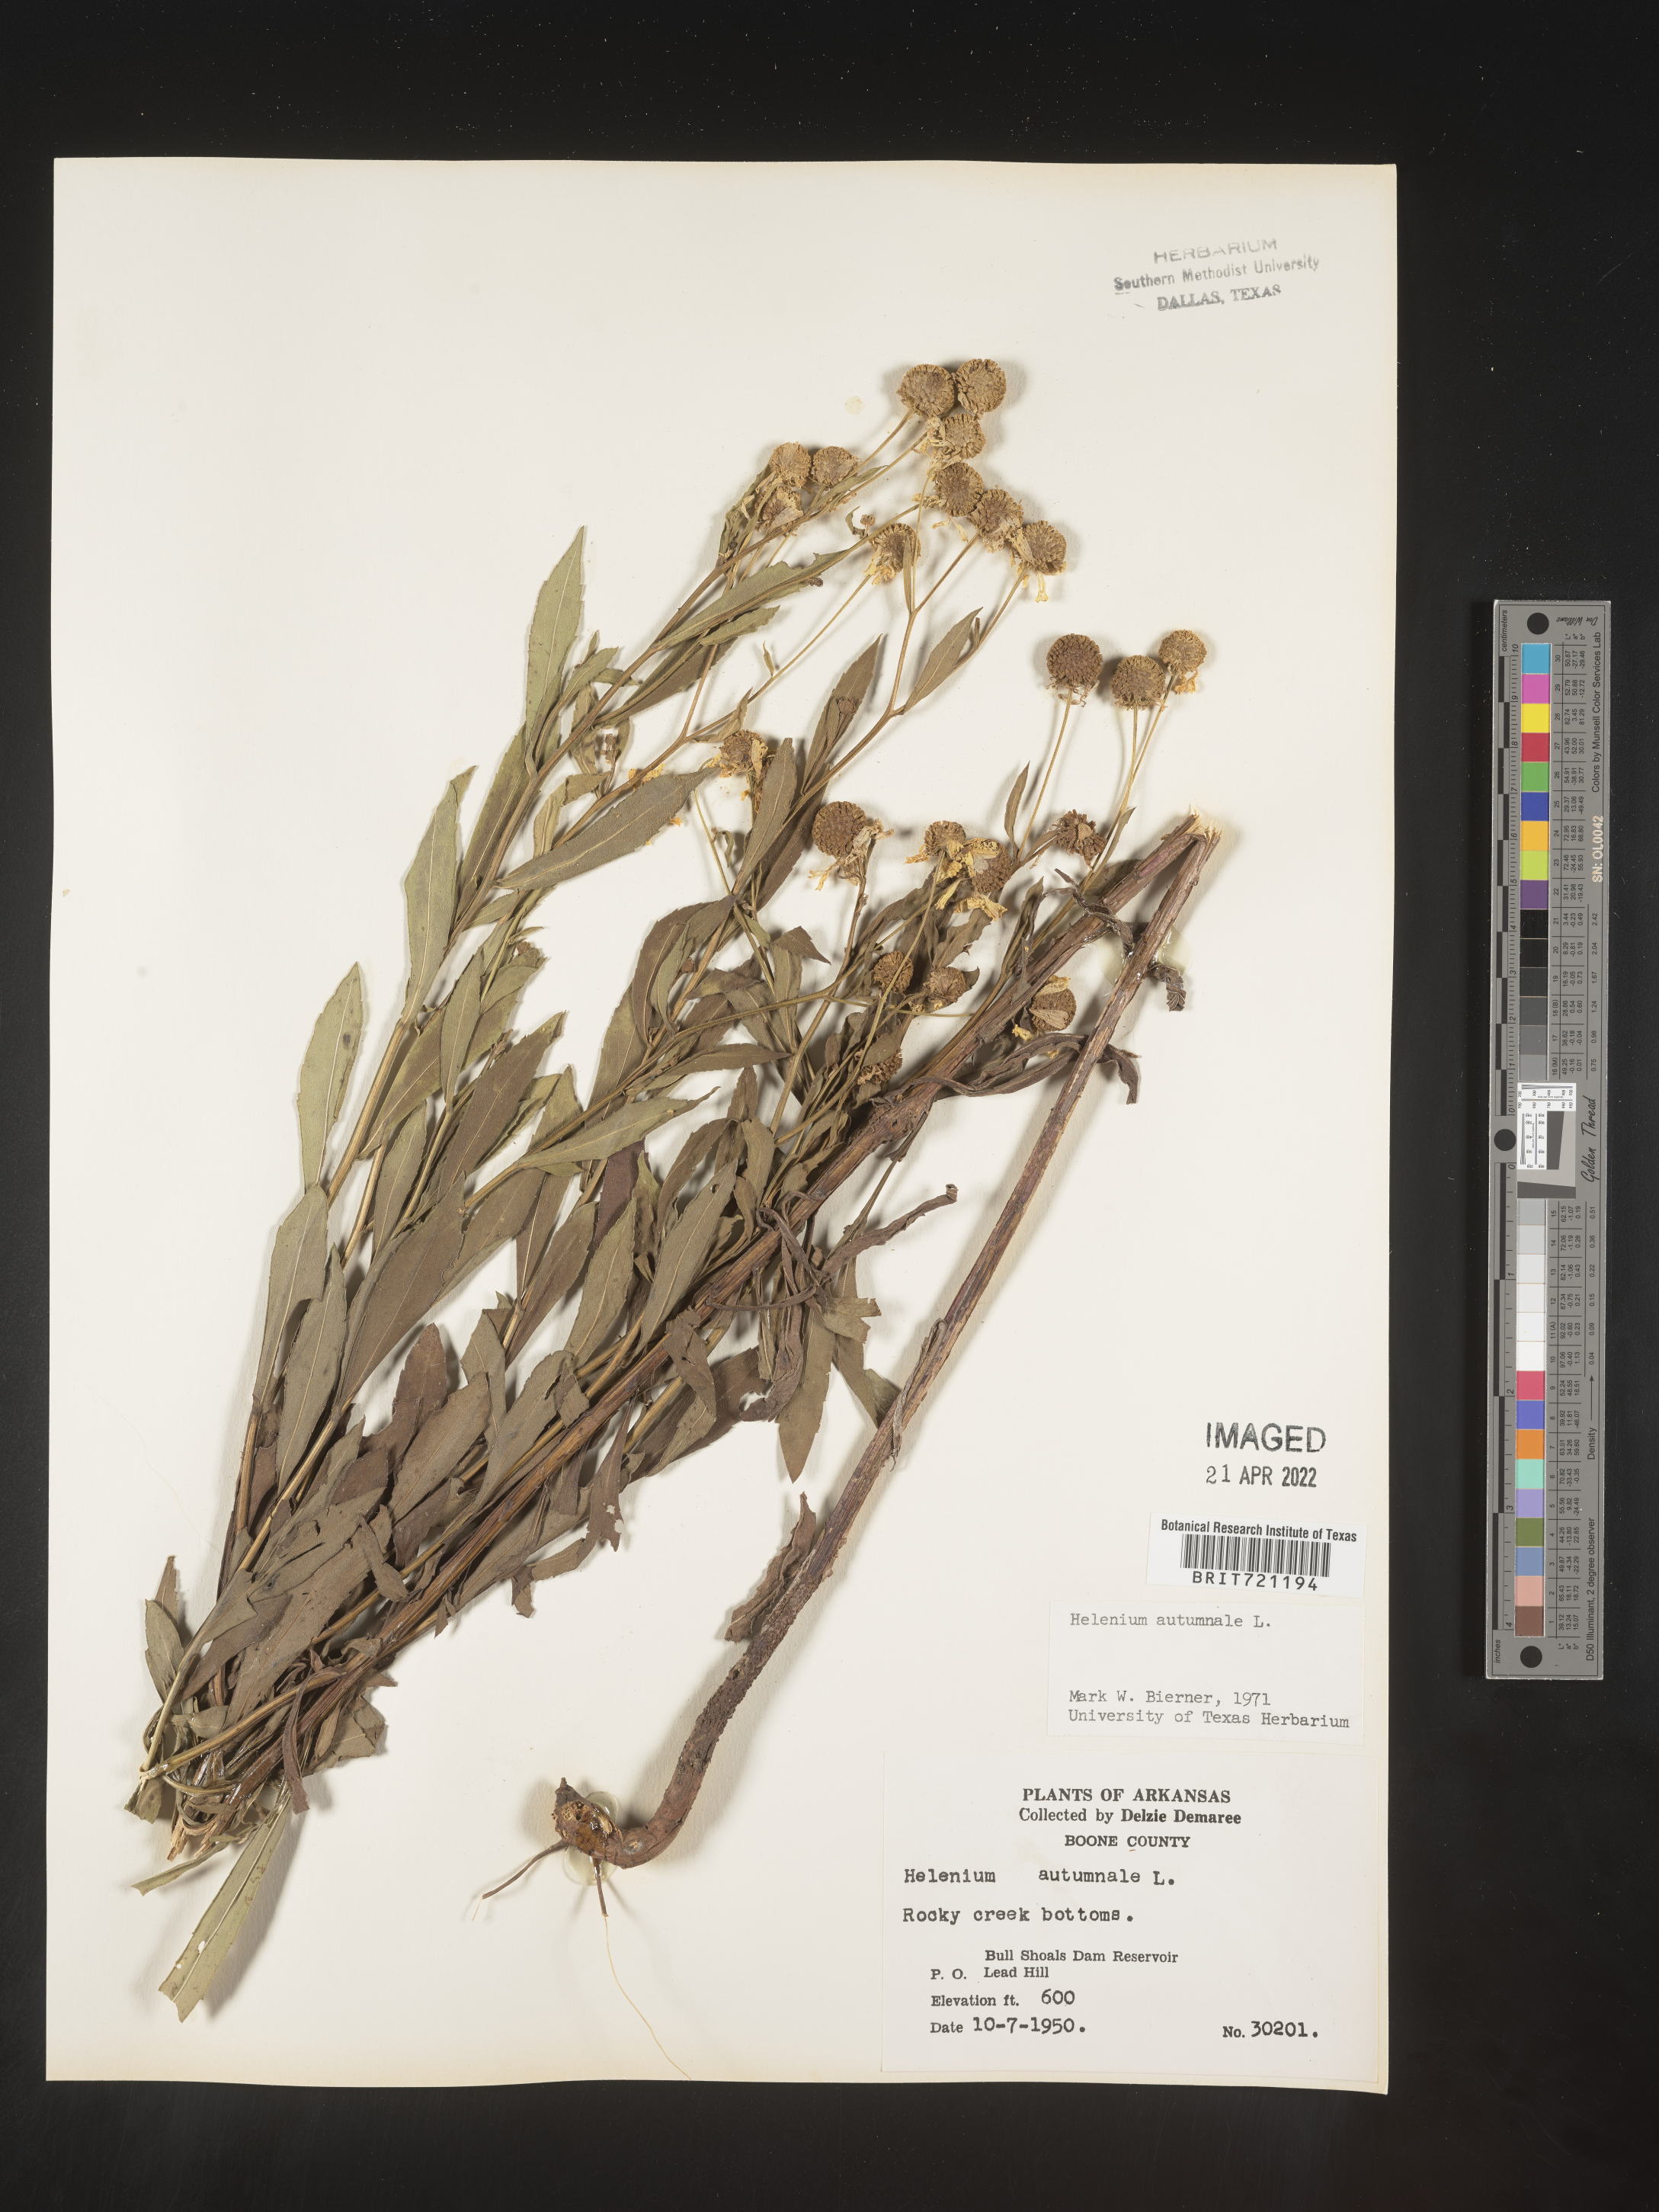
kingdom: Plantae
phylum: Tracheophyta
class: Magnoliopsida
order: Asterales
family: Asteraceae
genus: Helenium
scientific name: Helenium autumnale
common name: Sneezeweed
